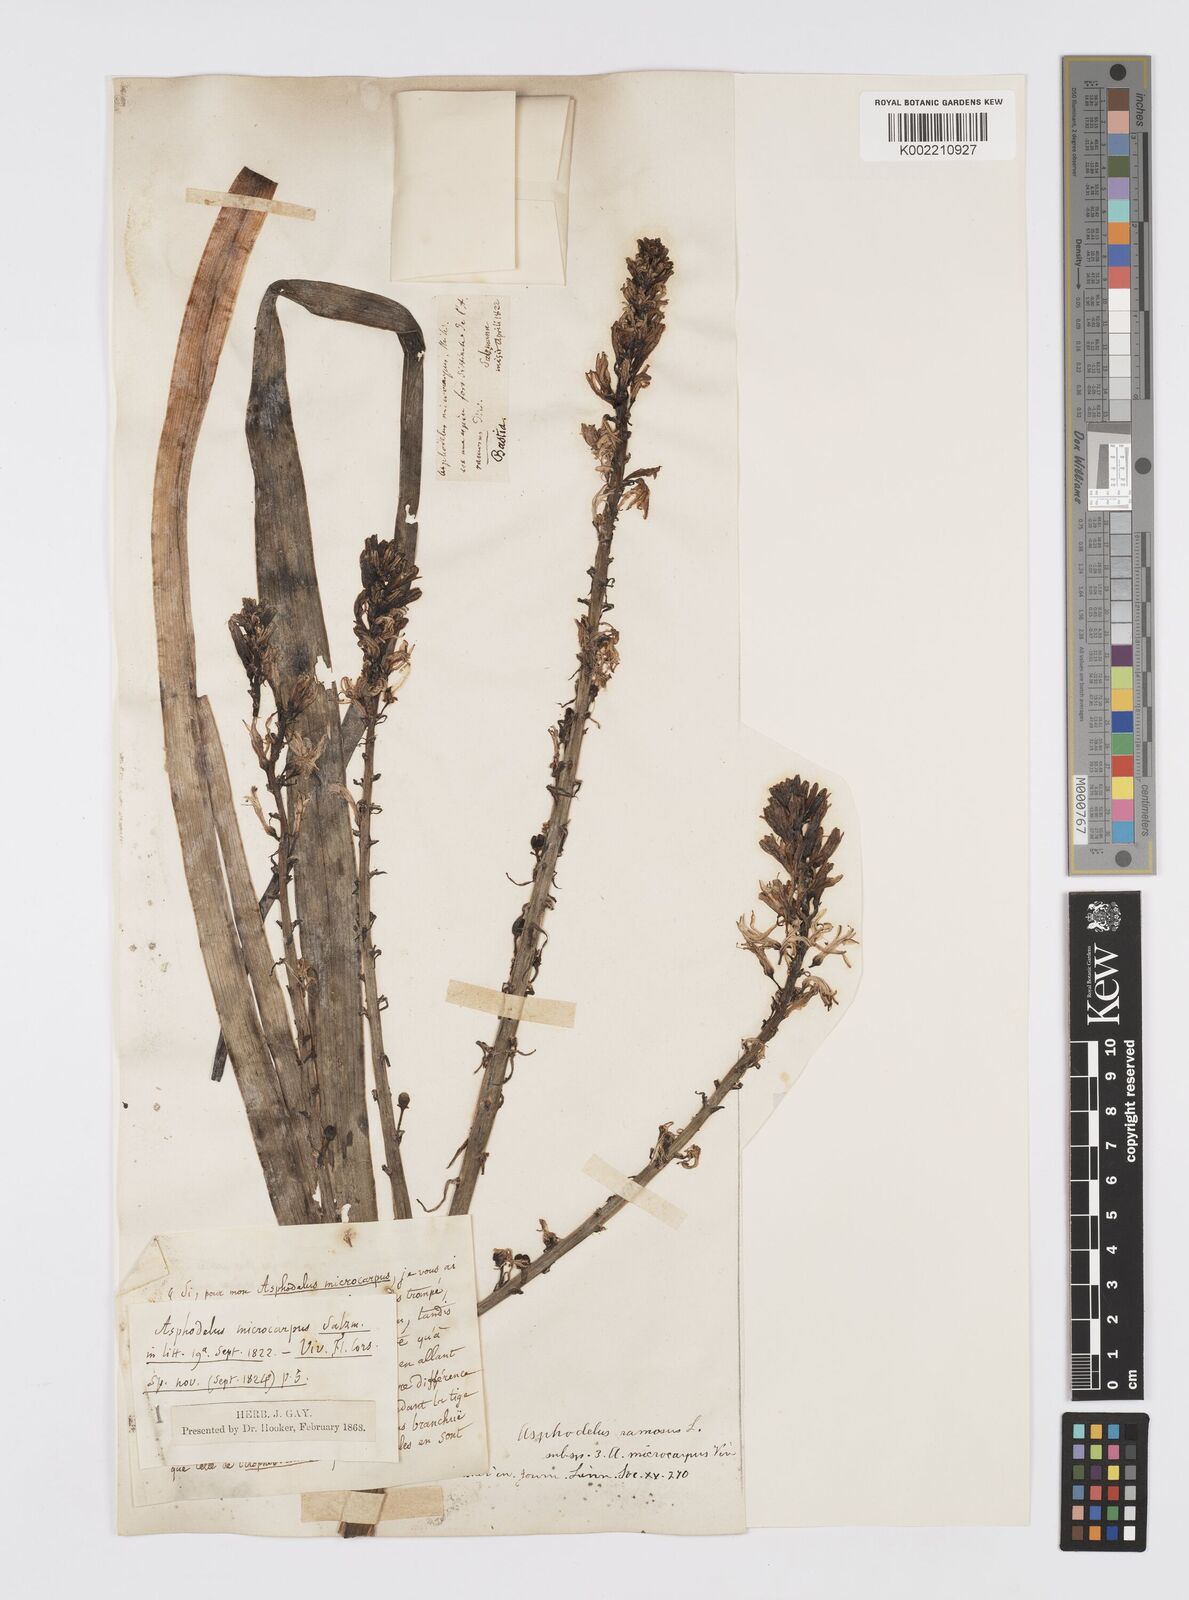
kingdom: Plantae
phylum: Tracheophyta
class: Liliopsida
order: Asparagales
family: Asphodelaceae
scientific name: Asphodelaceae
